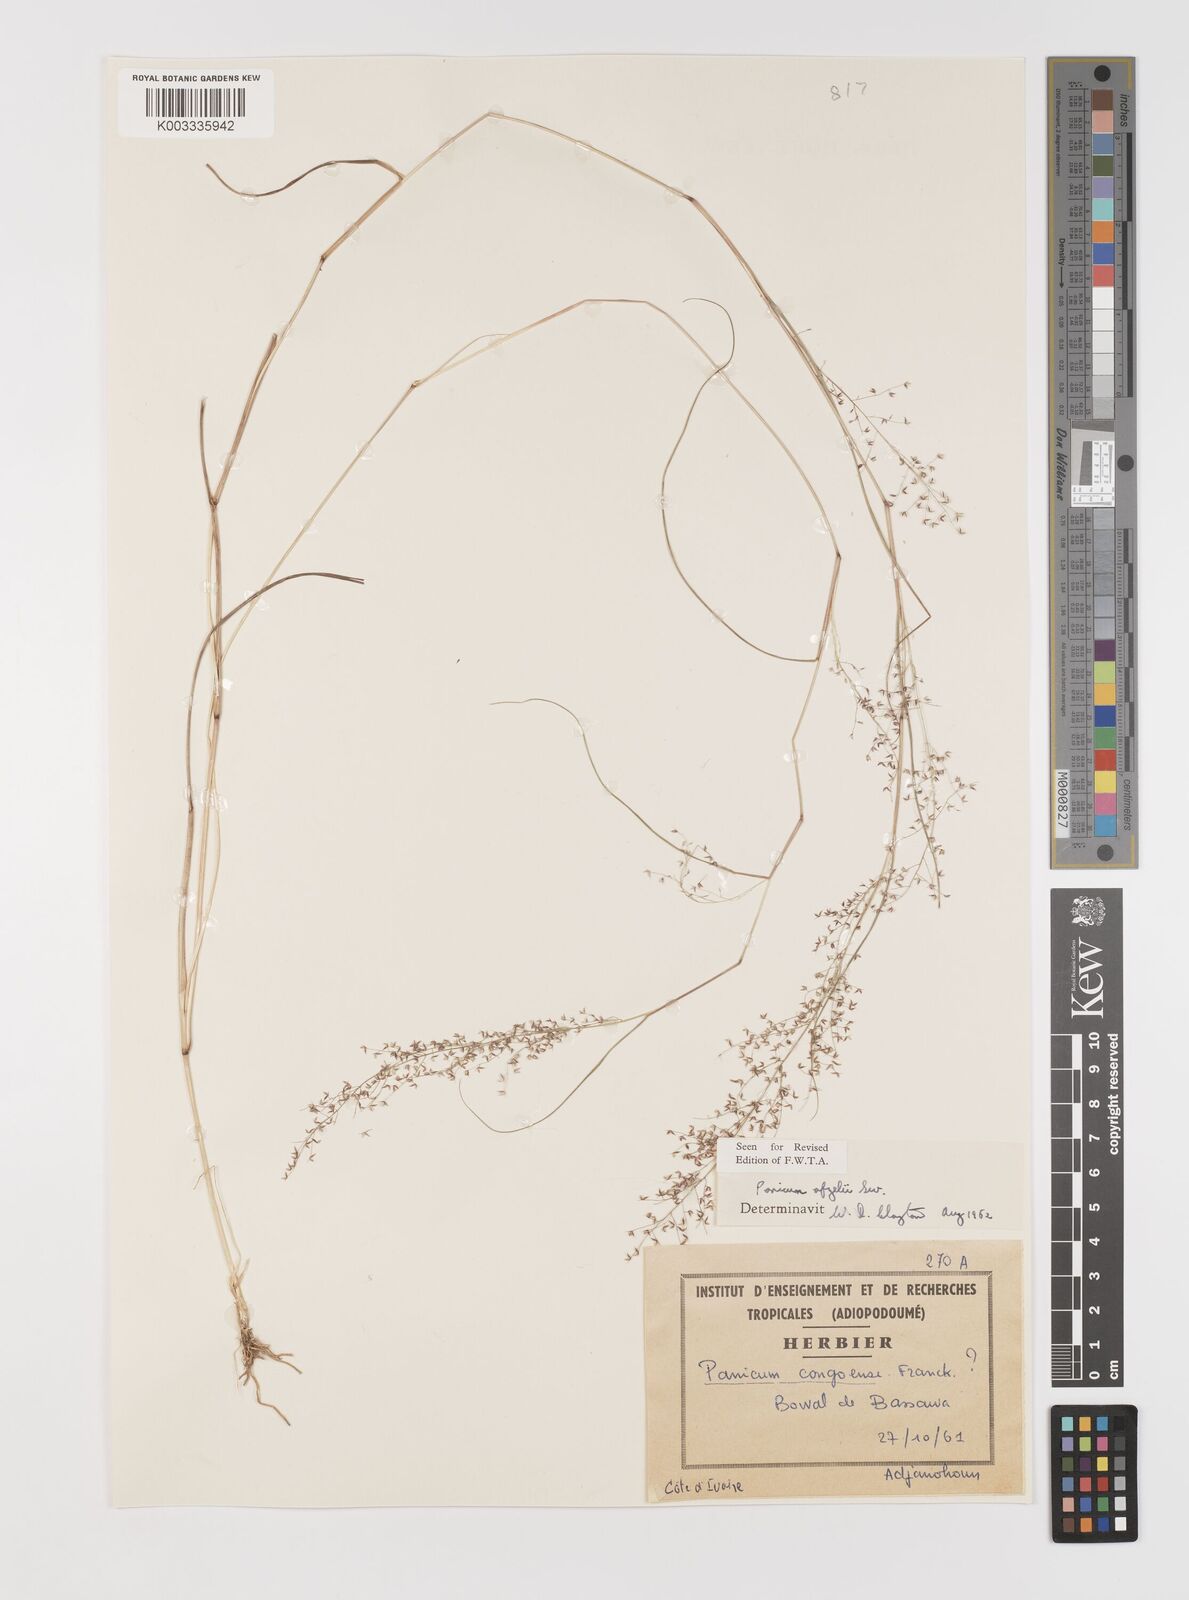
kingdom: Plantae
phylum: Tracheophyta
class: Liliopsida
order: Poales
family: Poaceae
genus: Panicum
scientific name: Panicum afzelii
